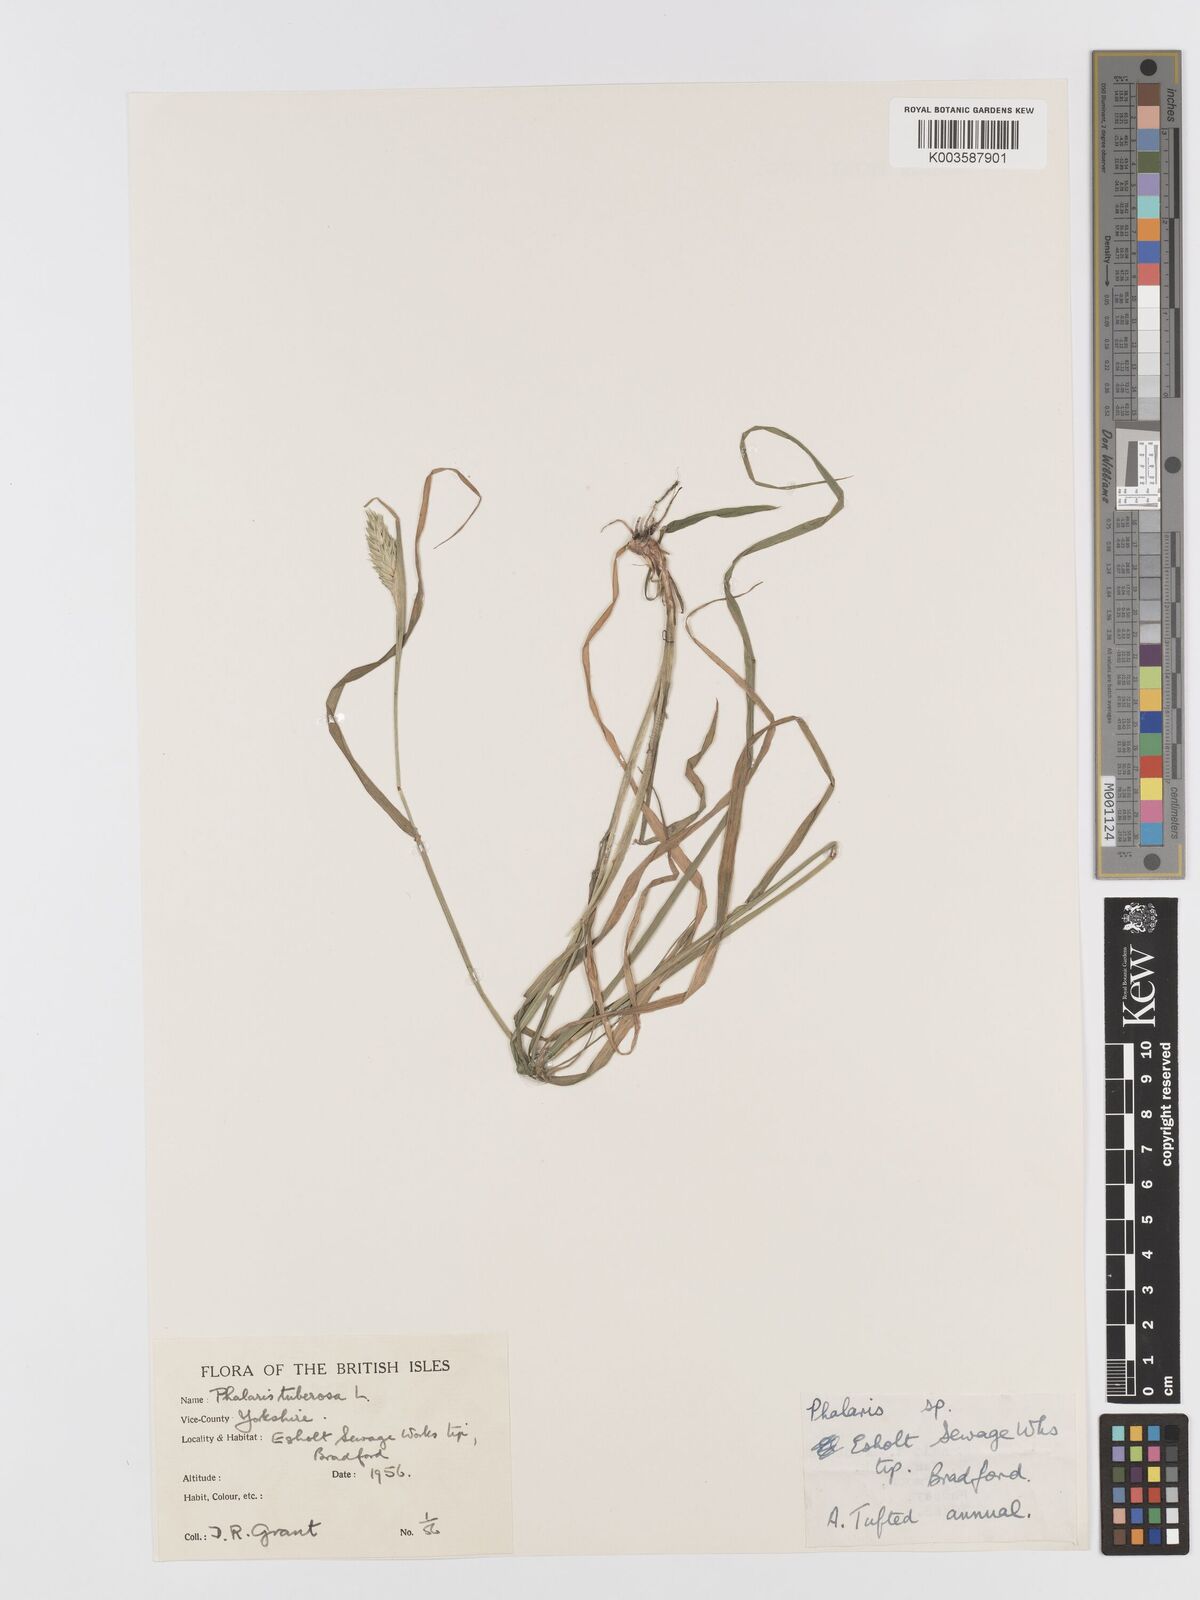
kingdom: Plantae
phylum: Tracheophyta
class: Liliopsida
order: Poales
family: Poaceae
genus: Phalaris
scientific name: Phalaris
